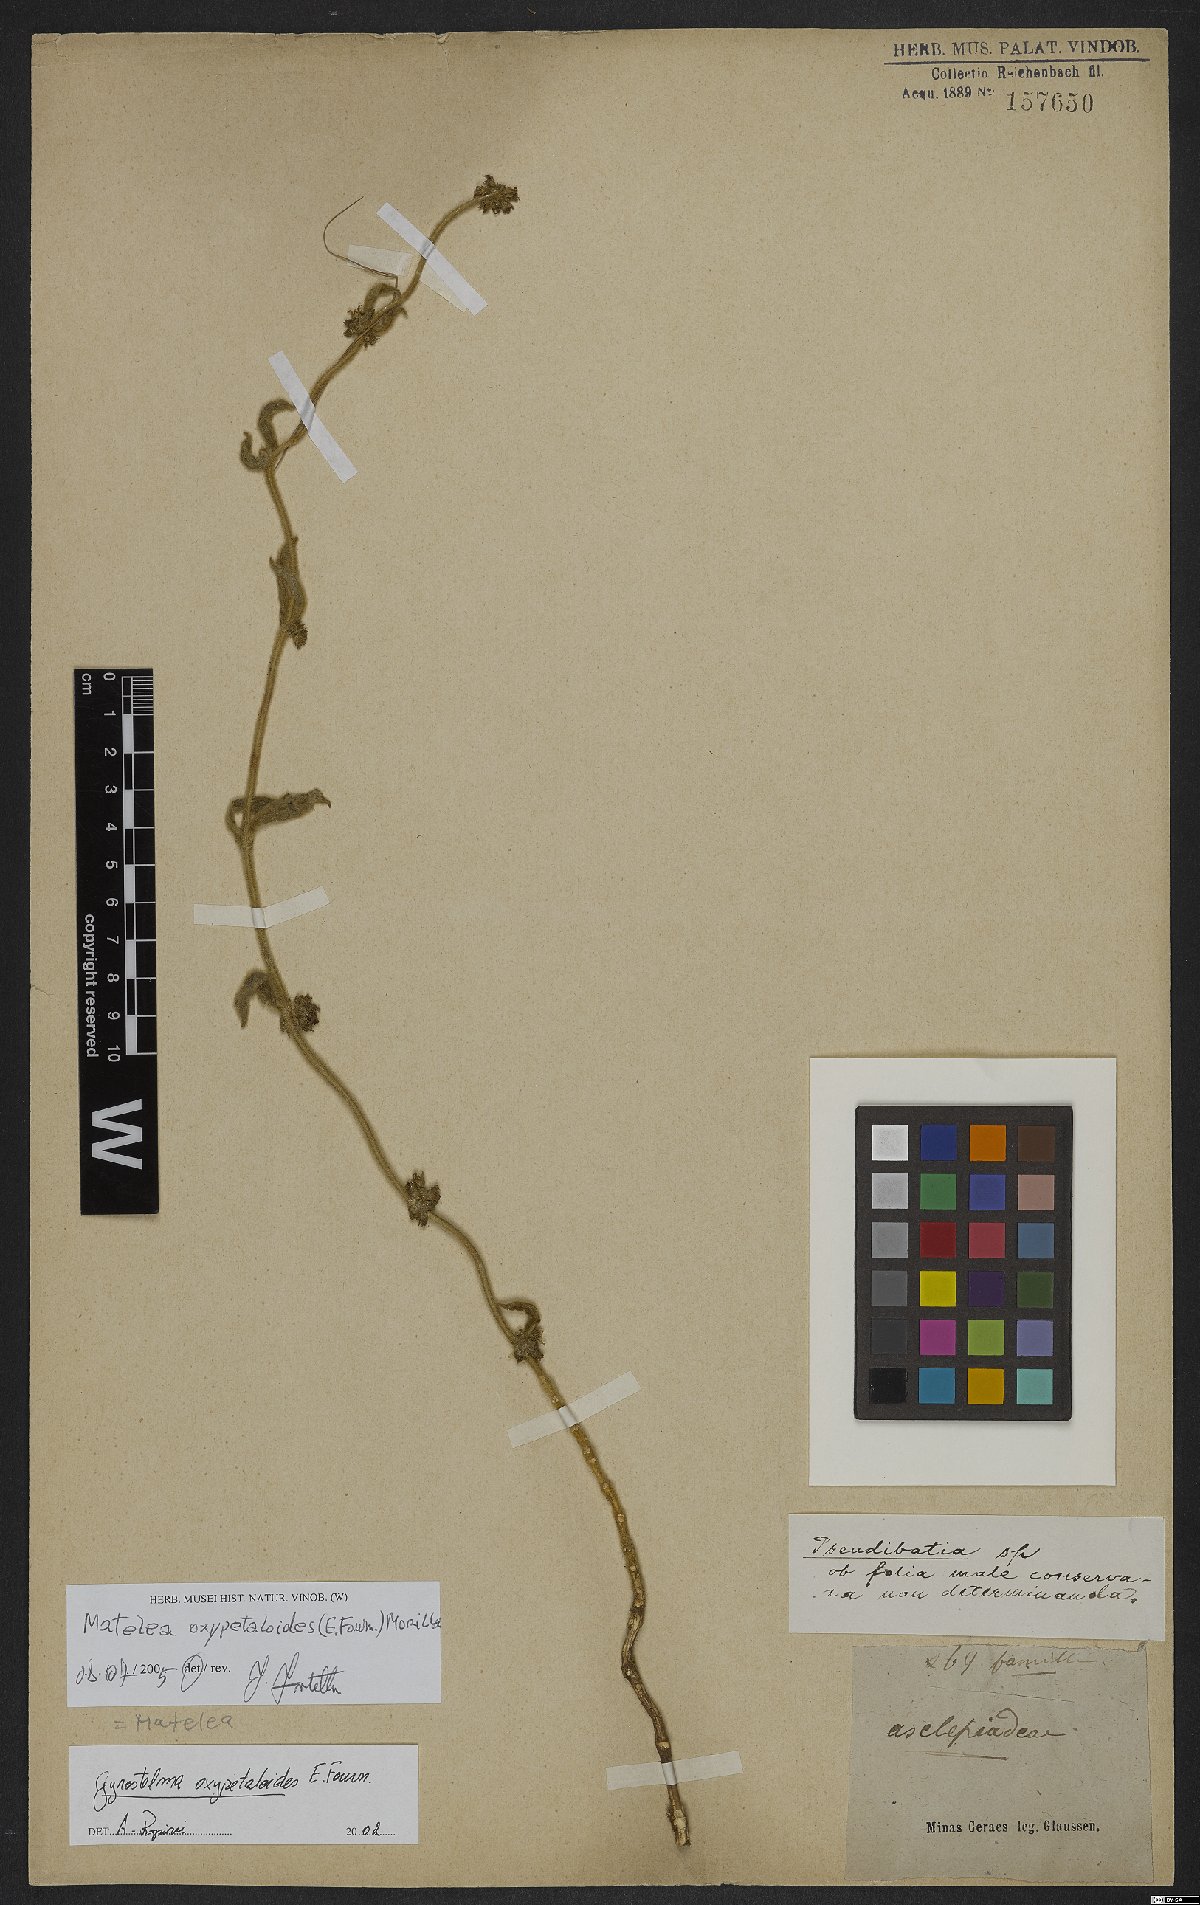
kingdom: Plantae
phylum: Tracheophyta
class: Magnoliopsida
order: Gentianales
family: Apocynaceae
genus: Gyrostelma
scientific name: Gyrostelma oxypetaloides
